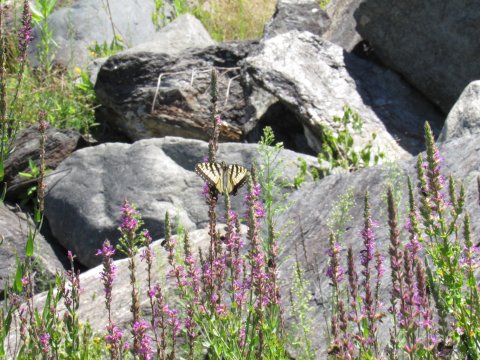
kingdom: Animalia
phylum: Arthropoda
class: Insecta
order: Lepidoptera
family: Papilionidae
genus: Pterourus
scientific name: Pterourus
